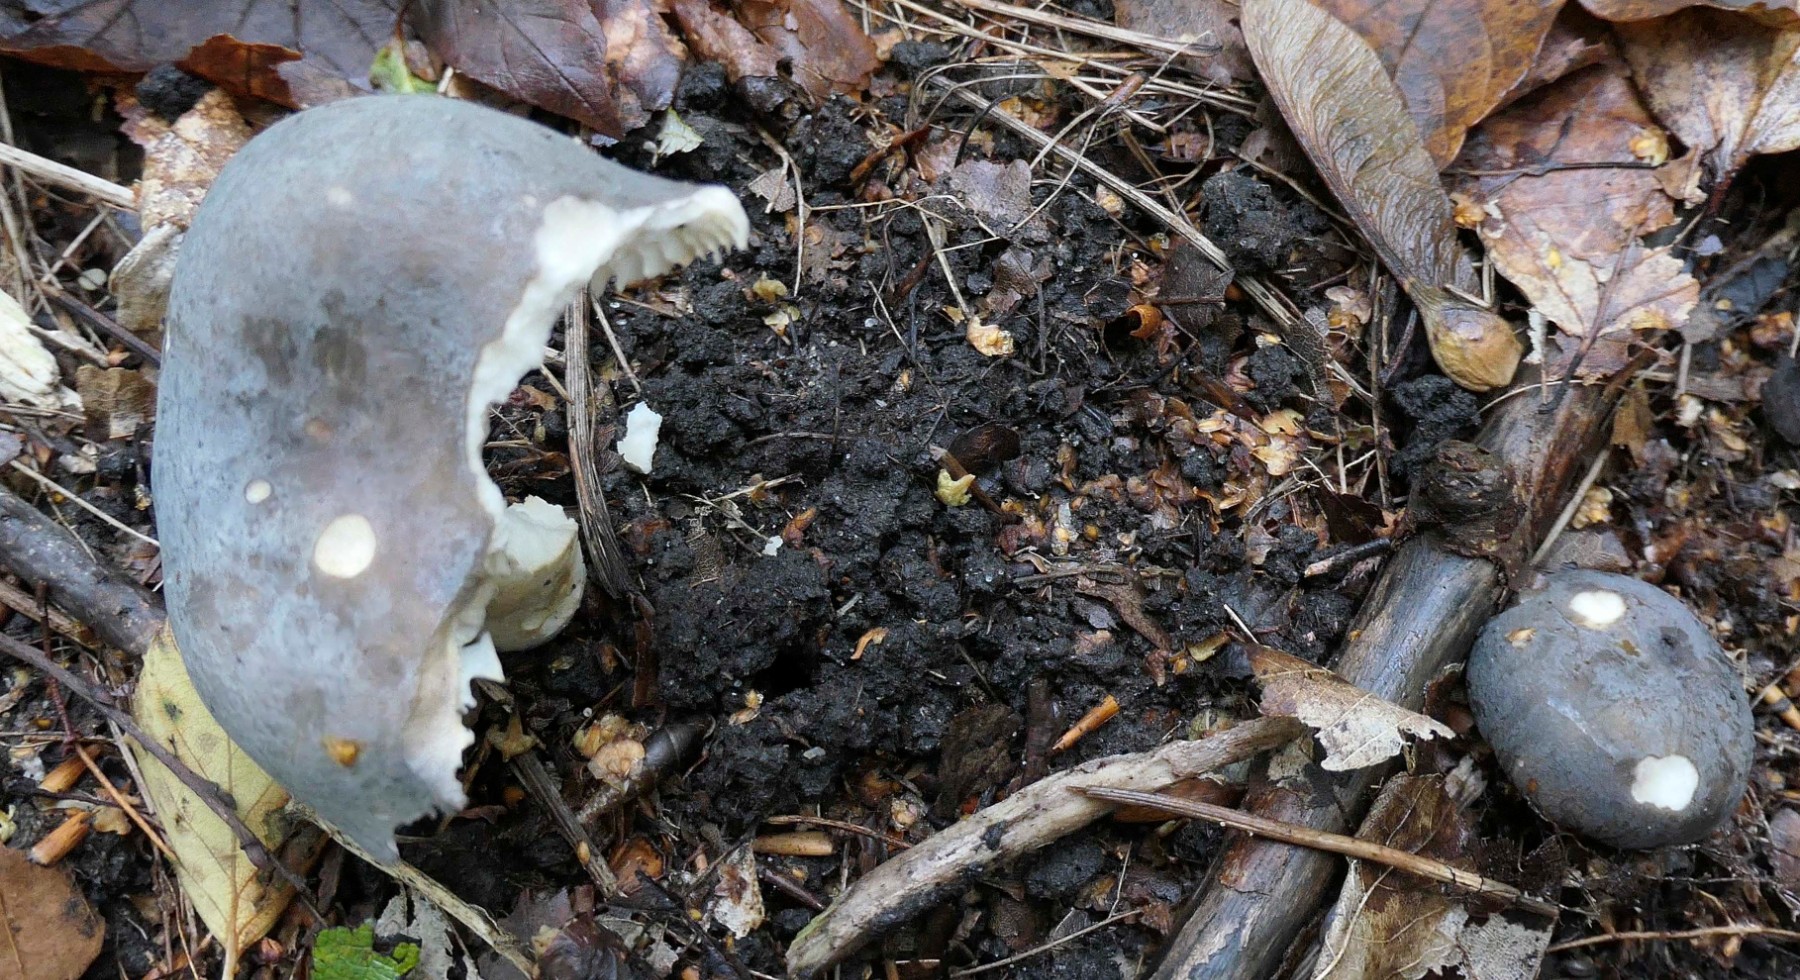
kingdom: Fungi
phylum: Basidiomycota
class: Agaricomycetes
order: Russulales
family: Russulaceae
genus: Russula
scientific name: Russula parazurea
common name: blågrå skørhat
